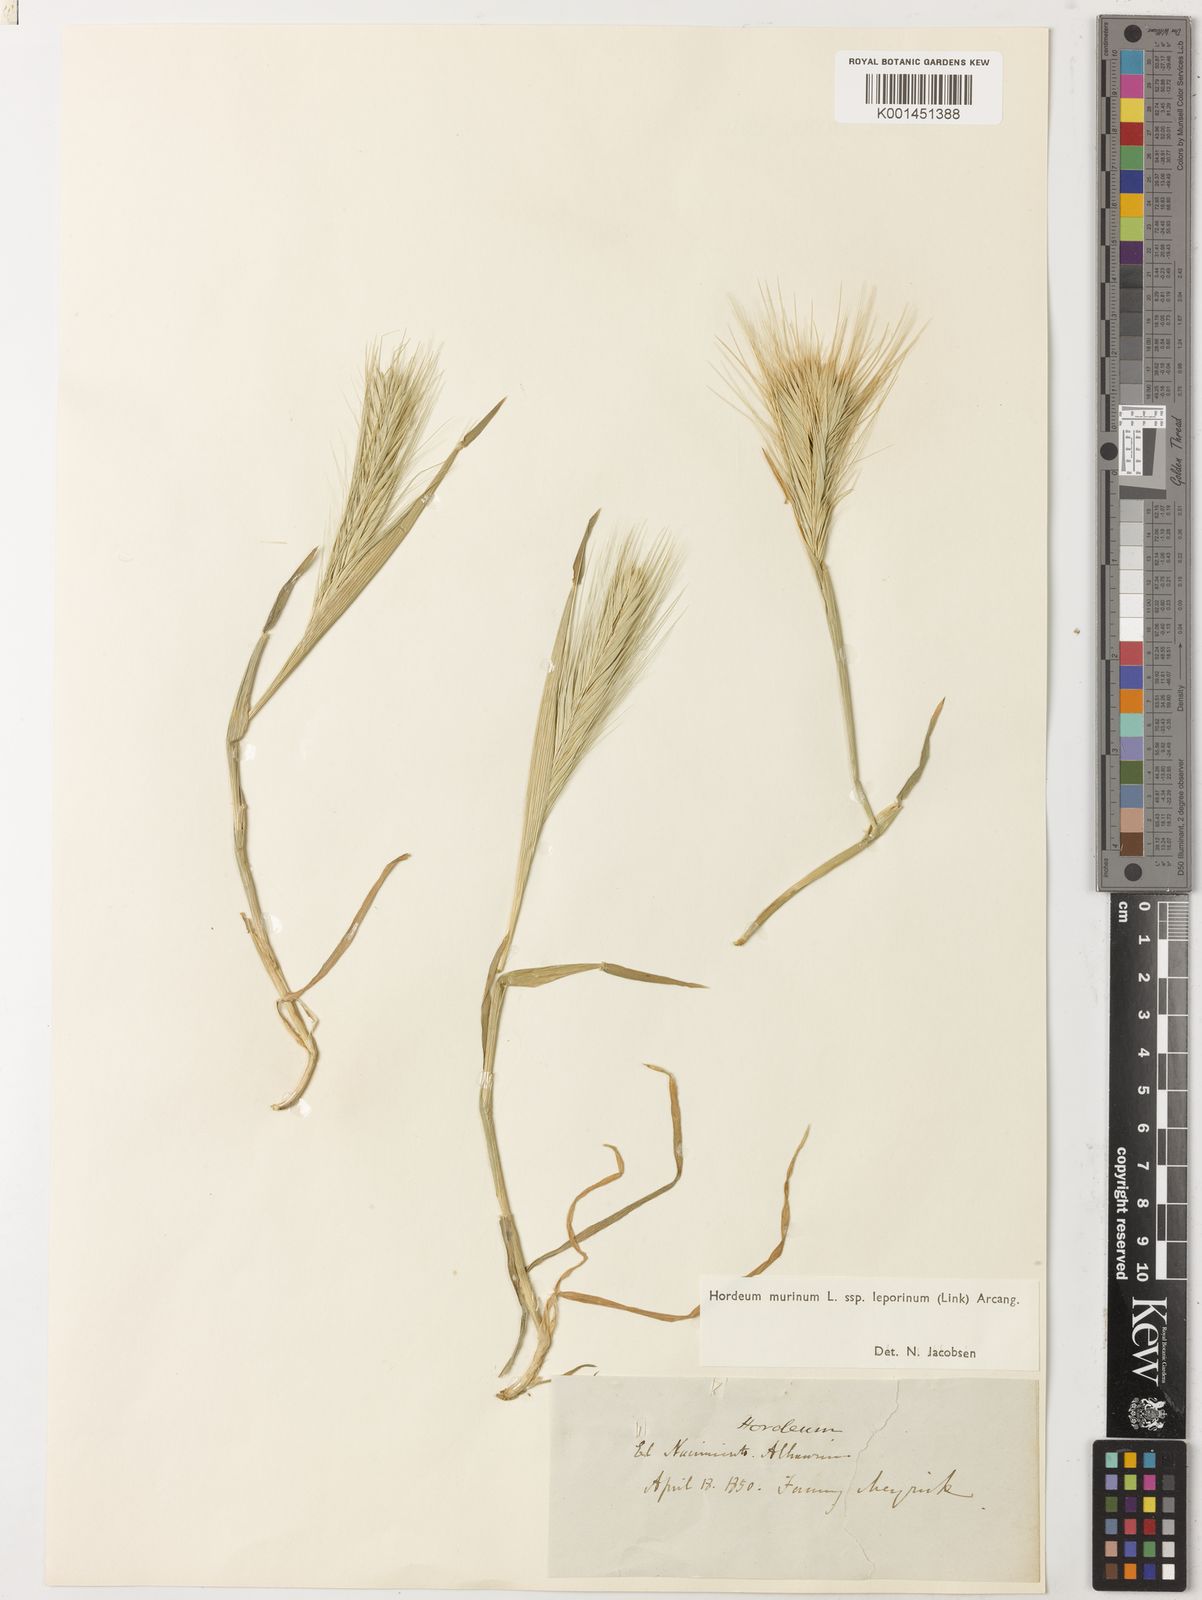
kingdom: Plantae
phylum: Tracheophyta
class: Liliopsida
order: Poales
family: Poaceae
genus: Hordeum
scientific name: Hordeum murinum
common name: Wall barley
